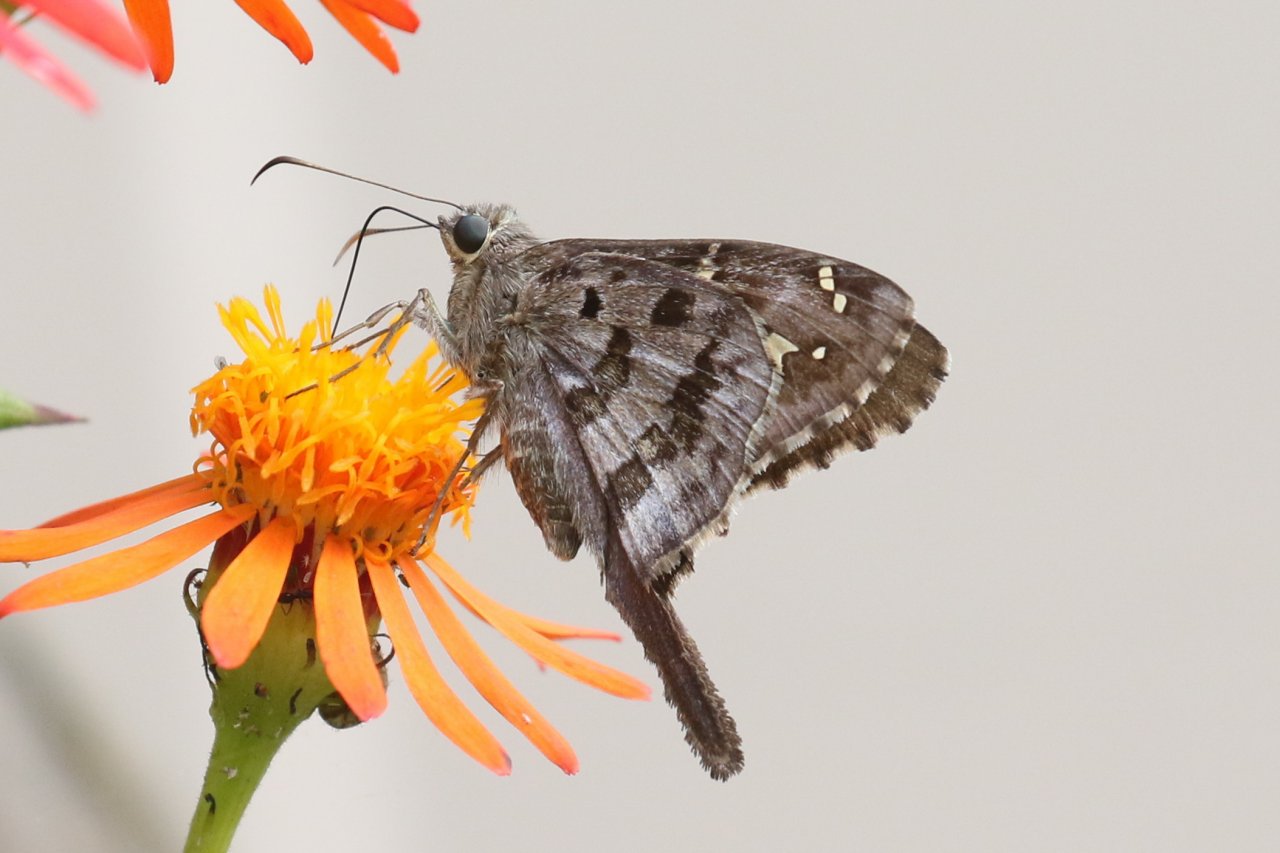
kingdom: Animalia
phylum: Arthropoda
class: Insecta
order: Lepidoptera
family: Hesperiidae
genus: Urbanus
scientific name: Urbanus dorantes
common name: Dorantes Longtail
